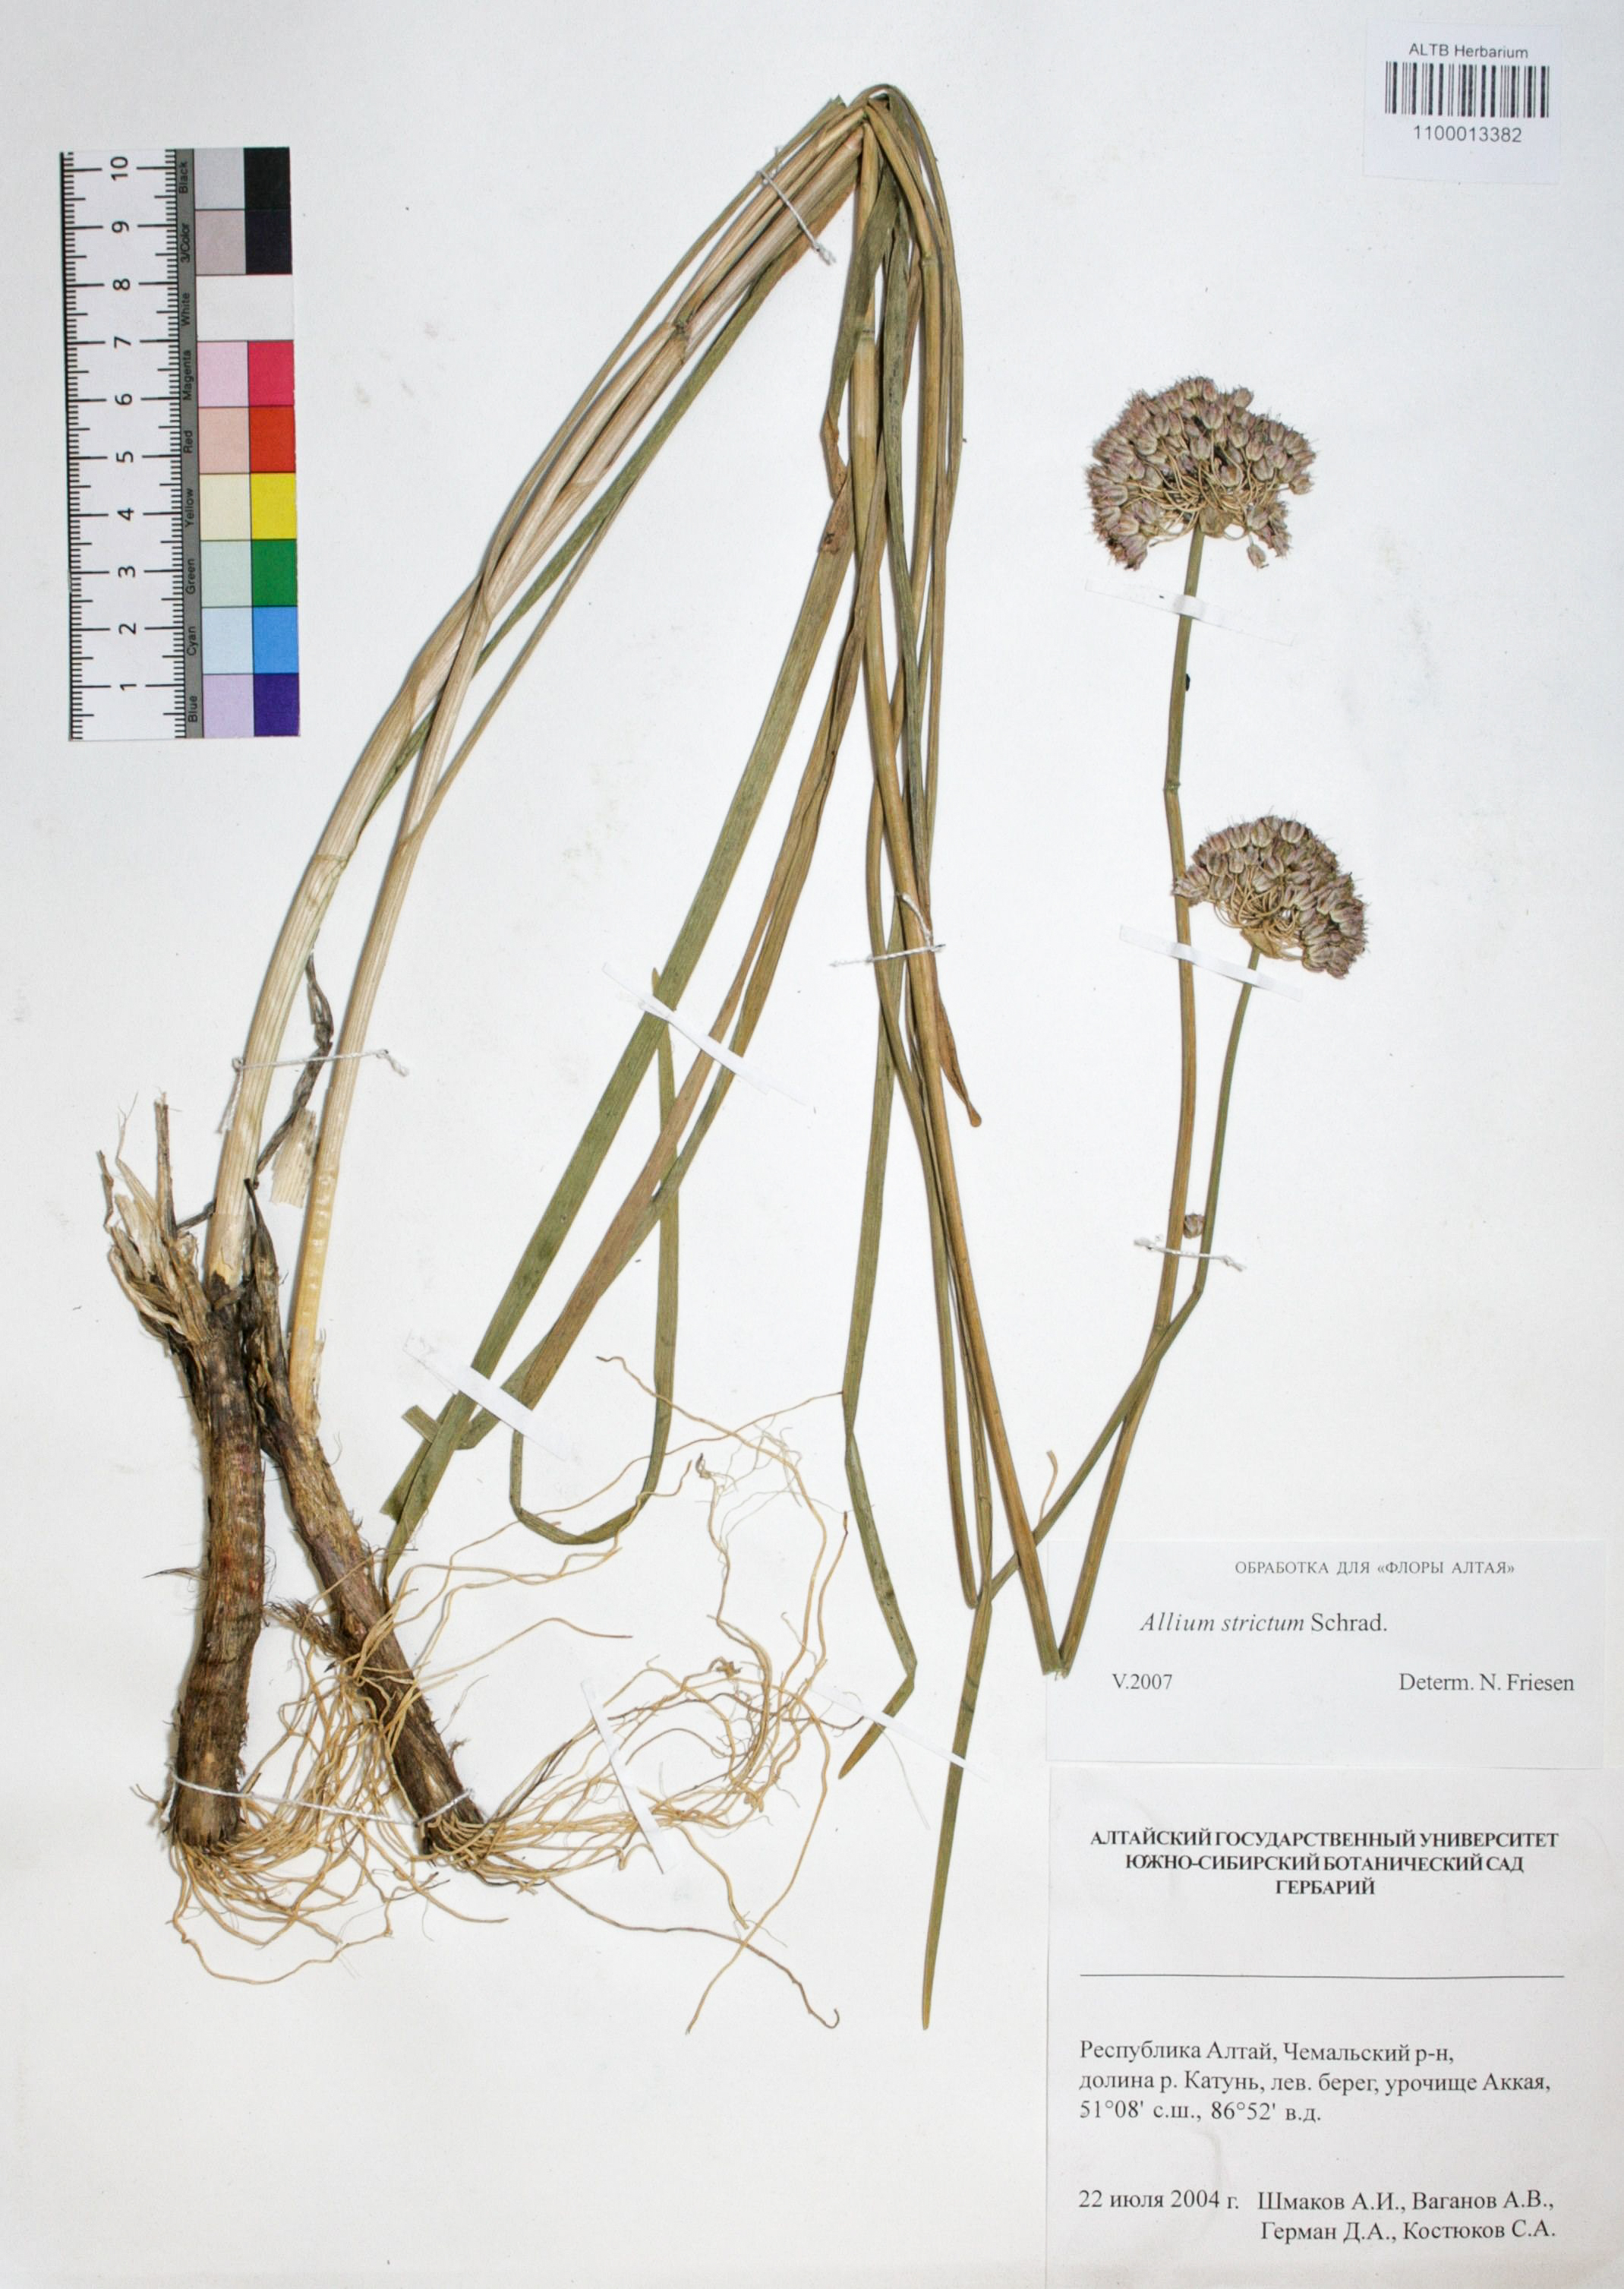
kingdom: Plantae
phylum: Tracheophyta
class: Liliopsida
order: Asparagales
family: Amaryllidaceae
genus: Allium
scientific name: Allium strictum
